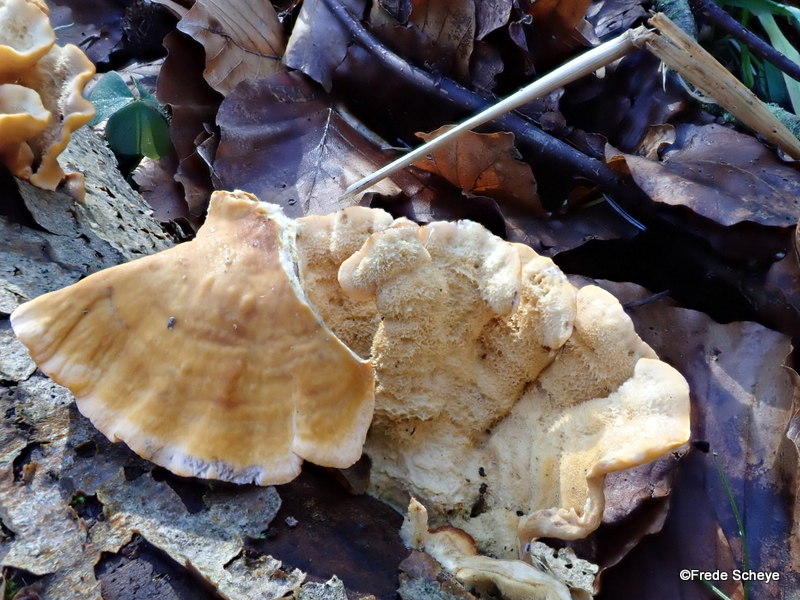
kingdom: Fungi
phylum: Basidiomycota
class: Agaricomycetes
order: Russulales
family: Stereaceae
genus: Stereum
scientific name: Stereum hirsutum
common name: håret lædersvamp
